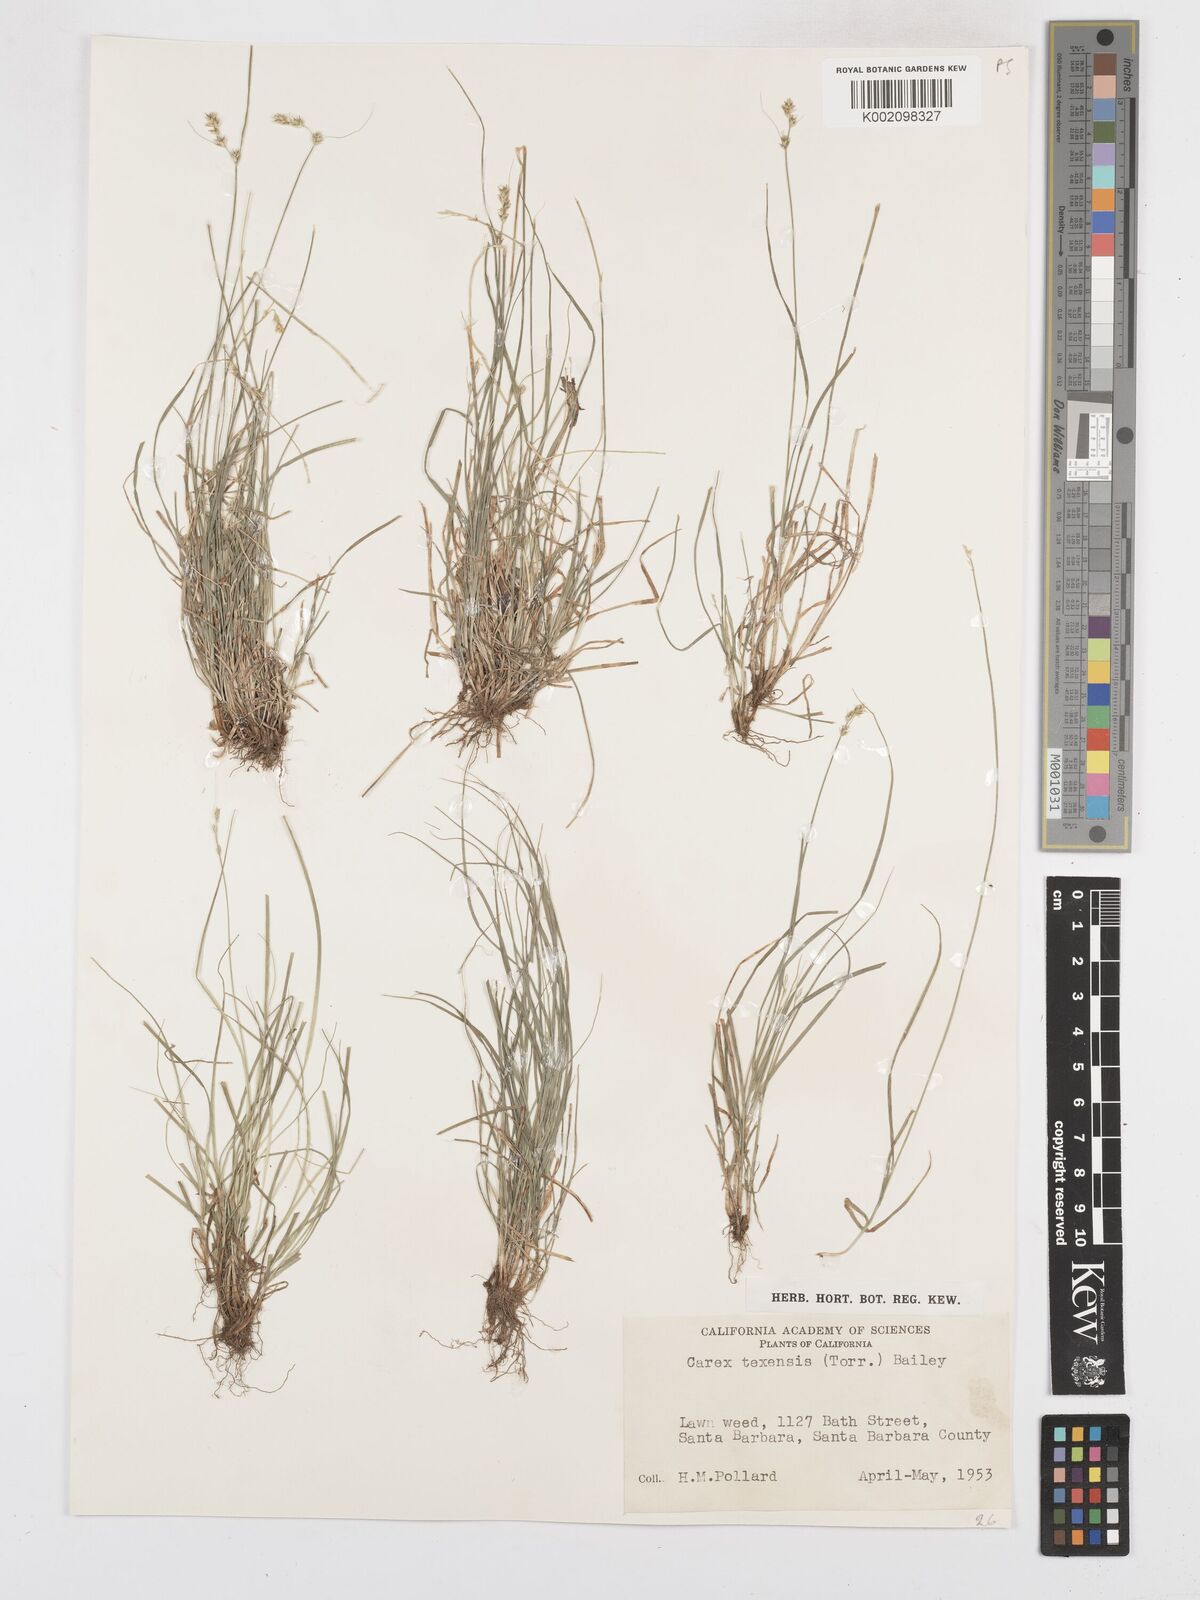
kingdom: Plantae
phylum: Tracheophyta
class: Liliopsida
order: Poales
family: Cyperaceae
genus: Carex
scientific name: Carex texensis
